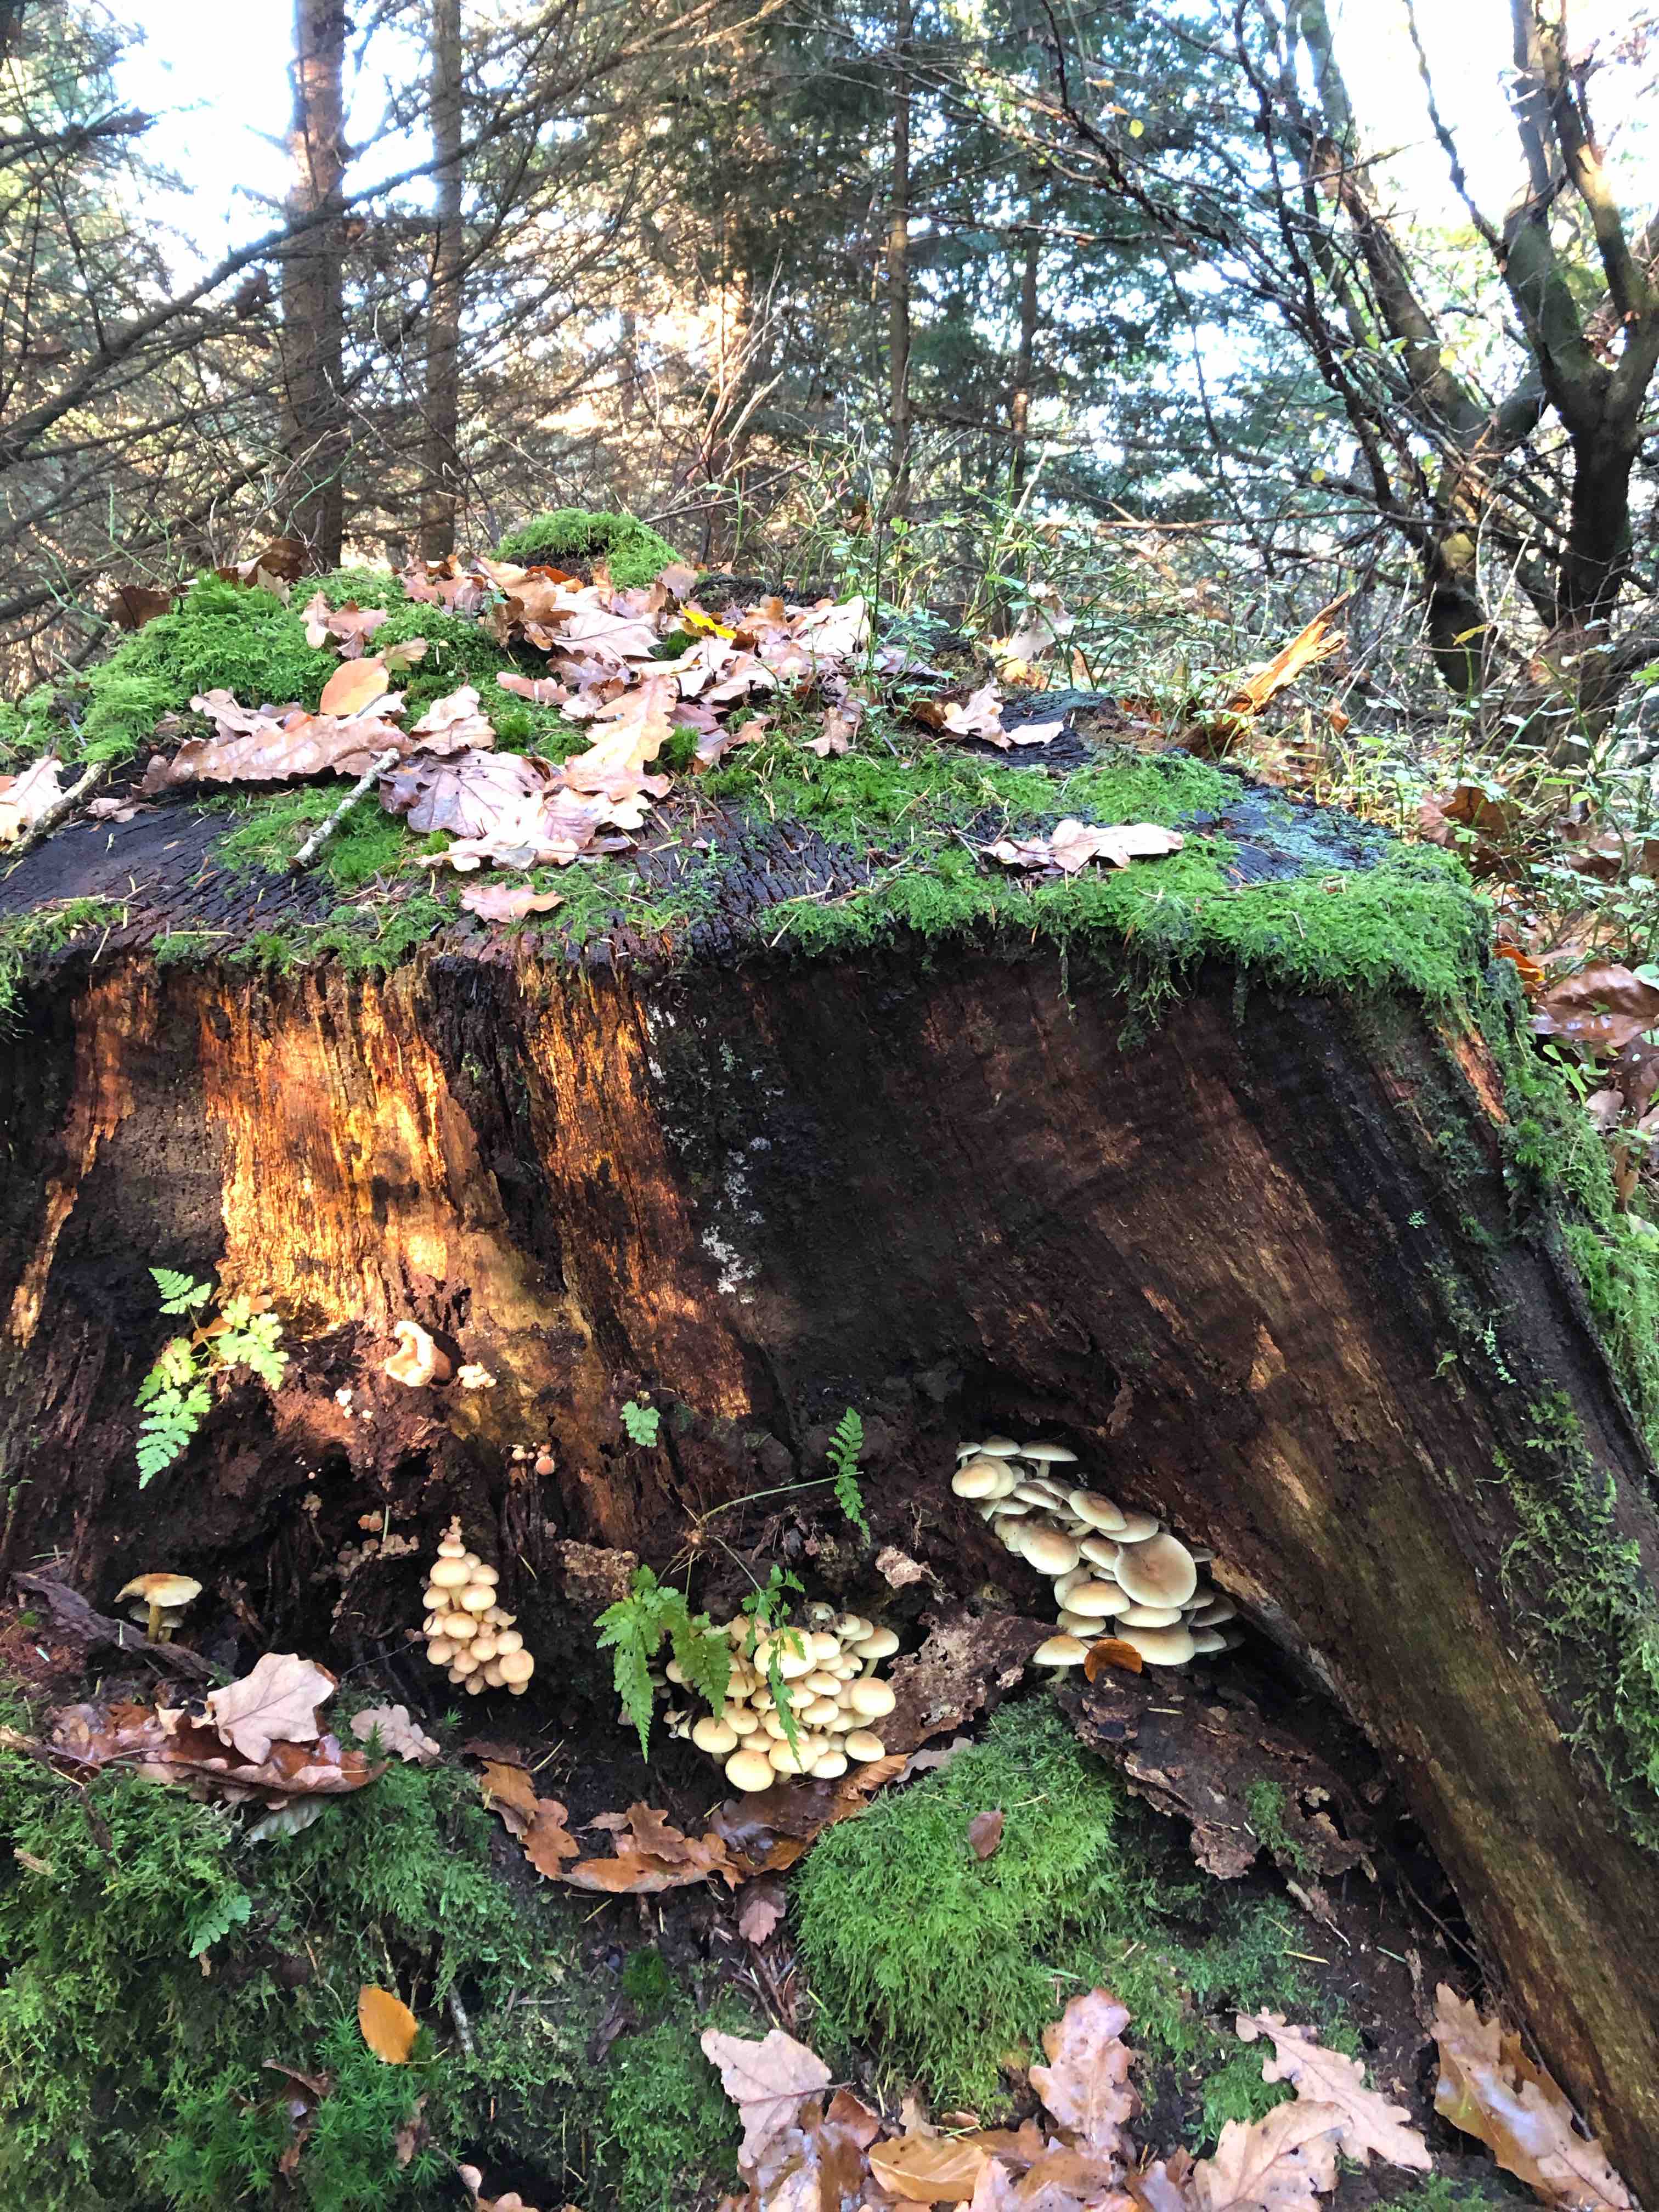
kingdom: Fungi
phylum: Basidiomycota
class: Agaricomycetes
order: Agaricales
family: Strophariaceae
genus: Hypholoma
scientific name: Hypholoma fasciculare
